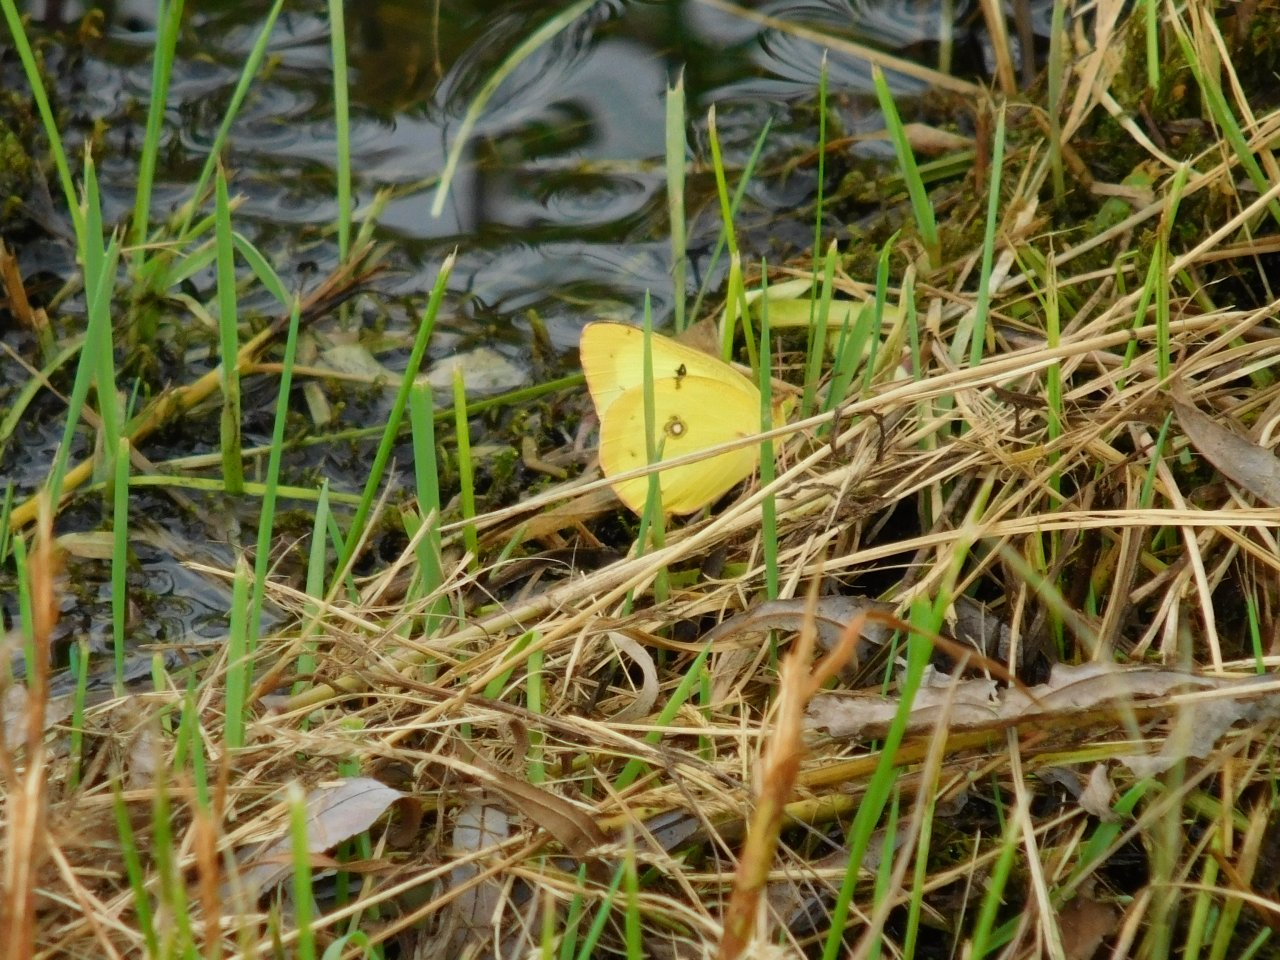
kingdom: Animalia
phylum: Arthropoda
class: Insecta
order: Lepidoptera
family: Pieridae
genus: Colias
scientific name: Colias philodice
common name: Clouded Sulphur
